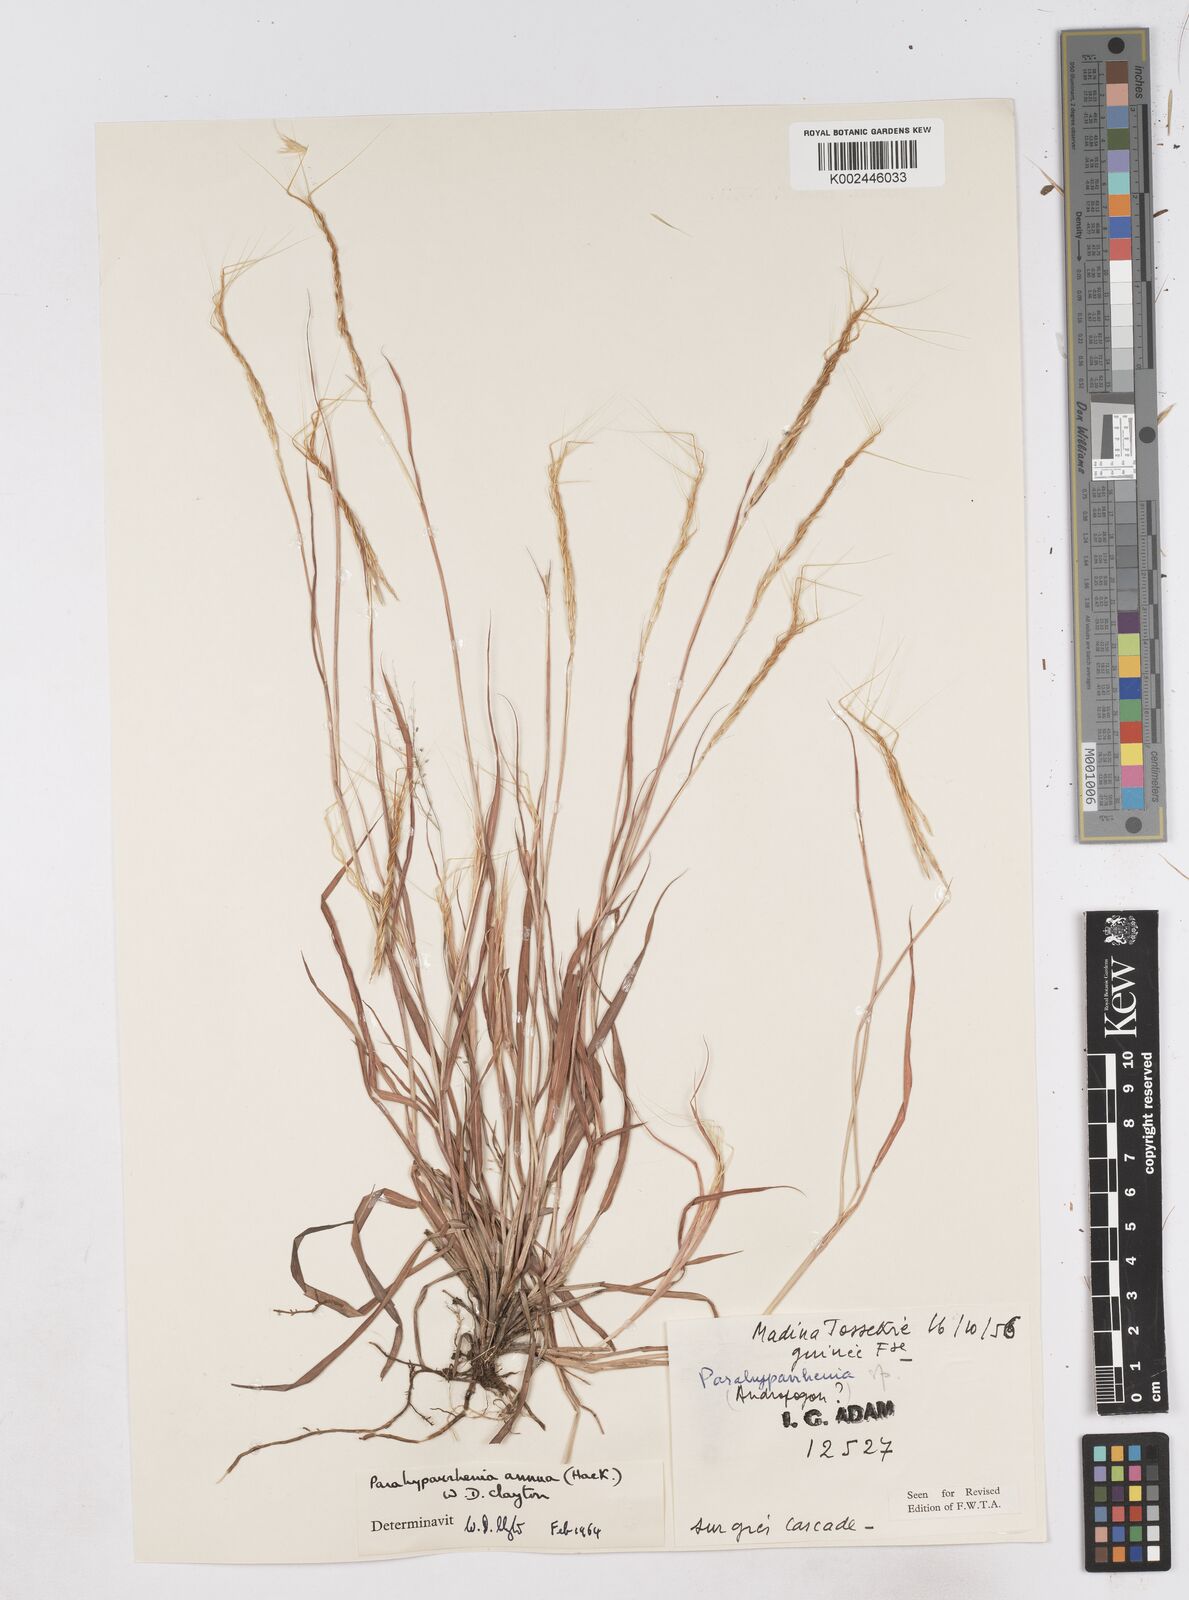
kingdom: Plantae
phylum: Tracheophyta
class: Liliopsida
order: Poales
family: Poaceae
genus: Parahyparrhenia
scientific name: Parahyparrhenia annua
